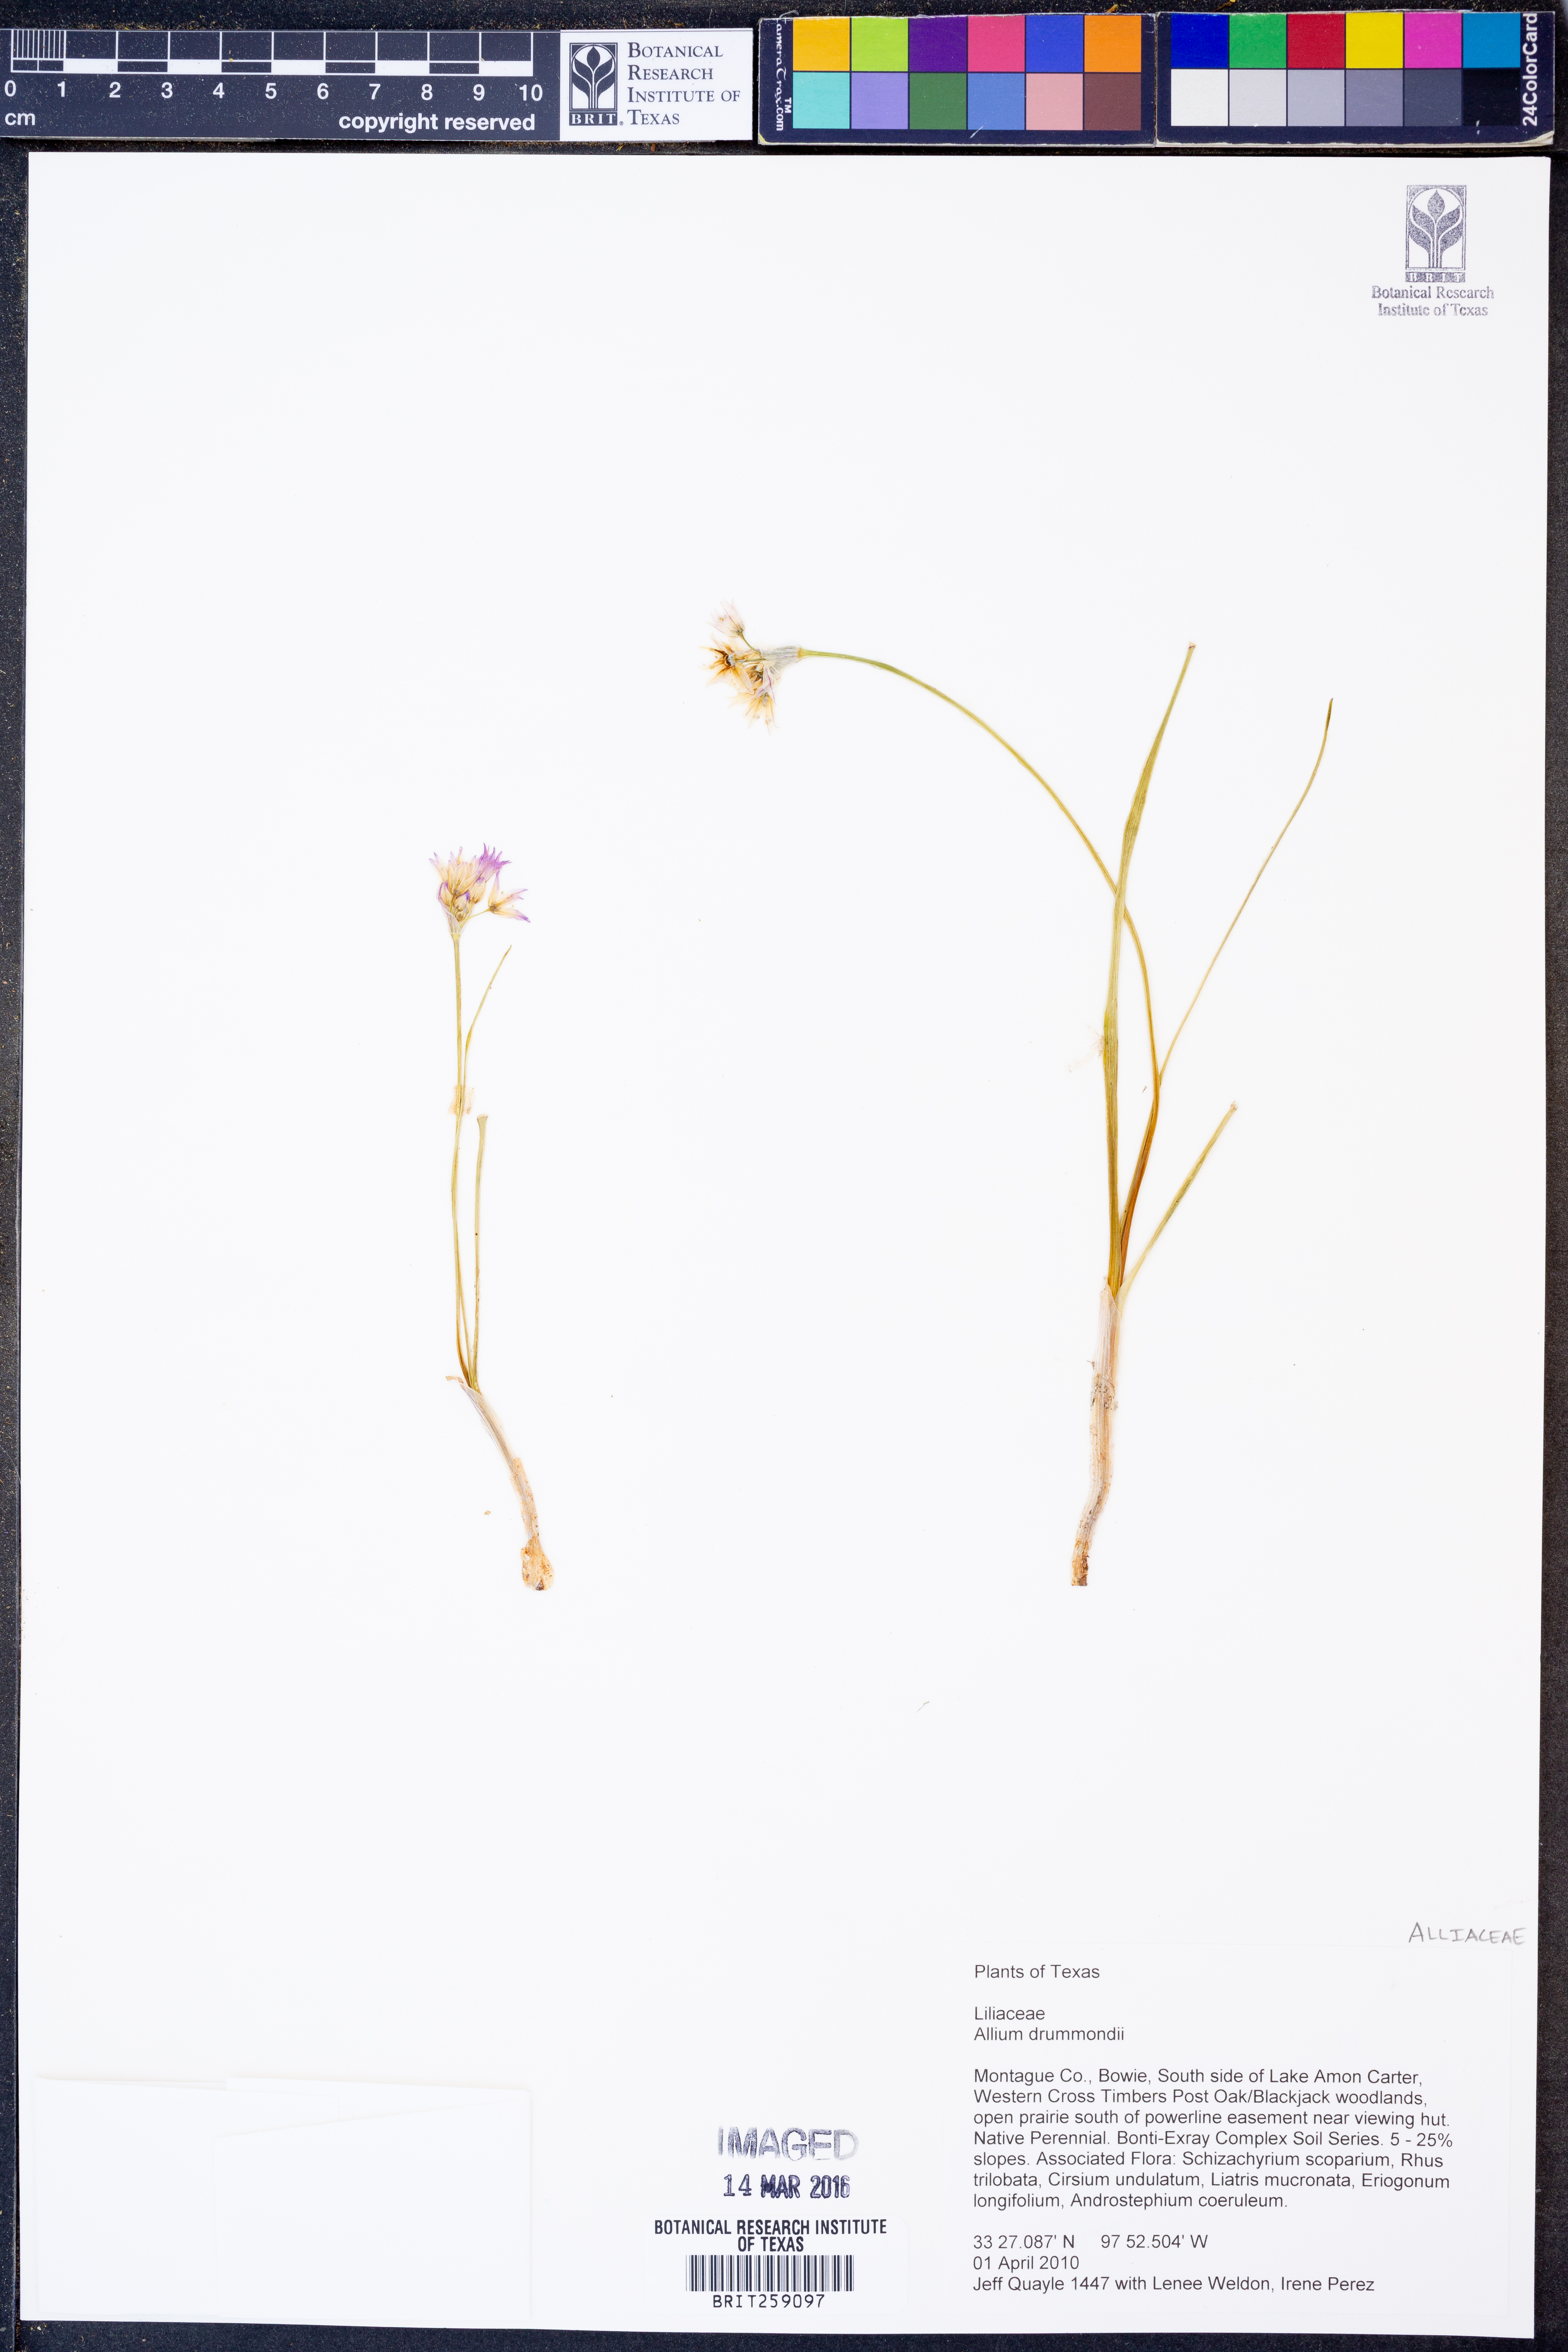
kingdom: Plantae
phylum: Tracheophyta
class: Liliopsida
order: Asparagales
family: Amaryllidaceae
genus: Allium
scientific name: Allium drummondii
